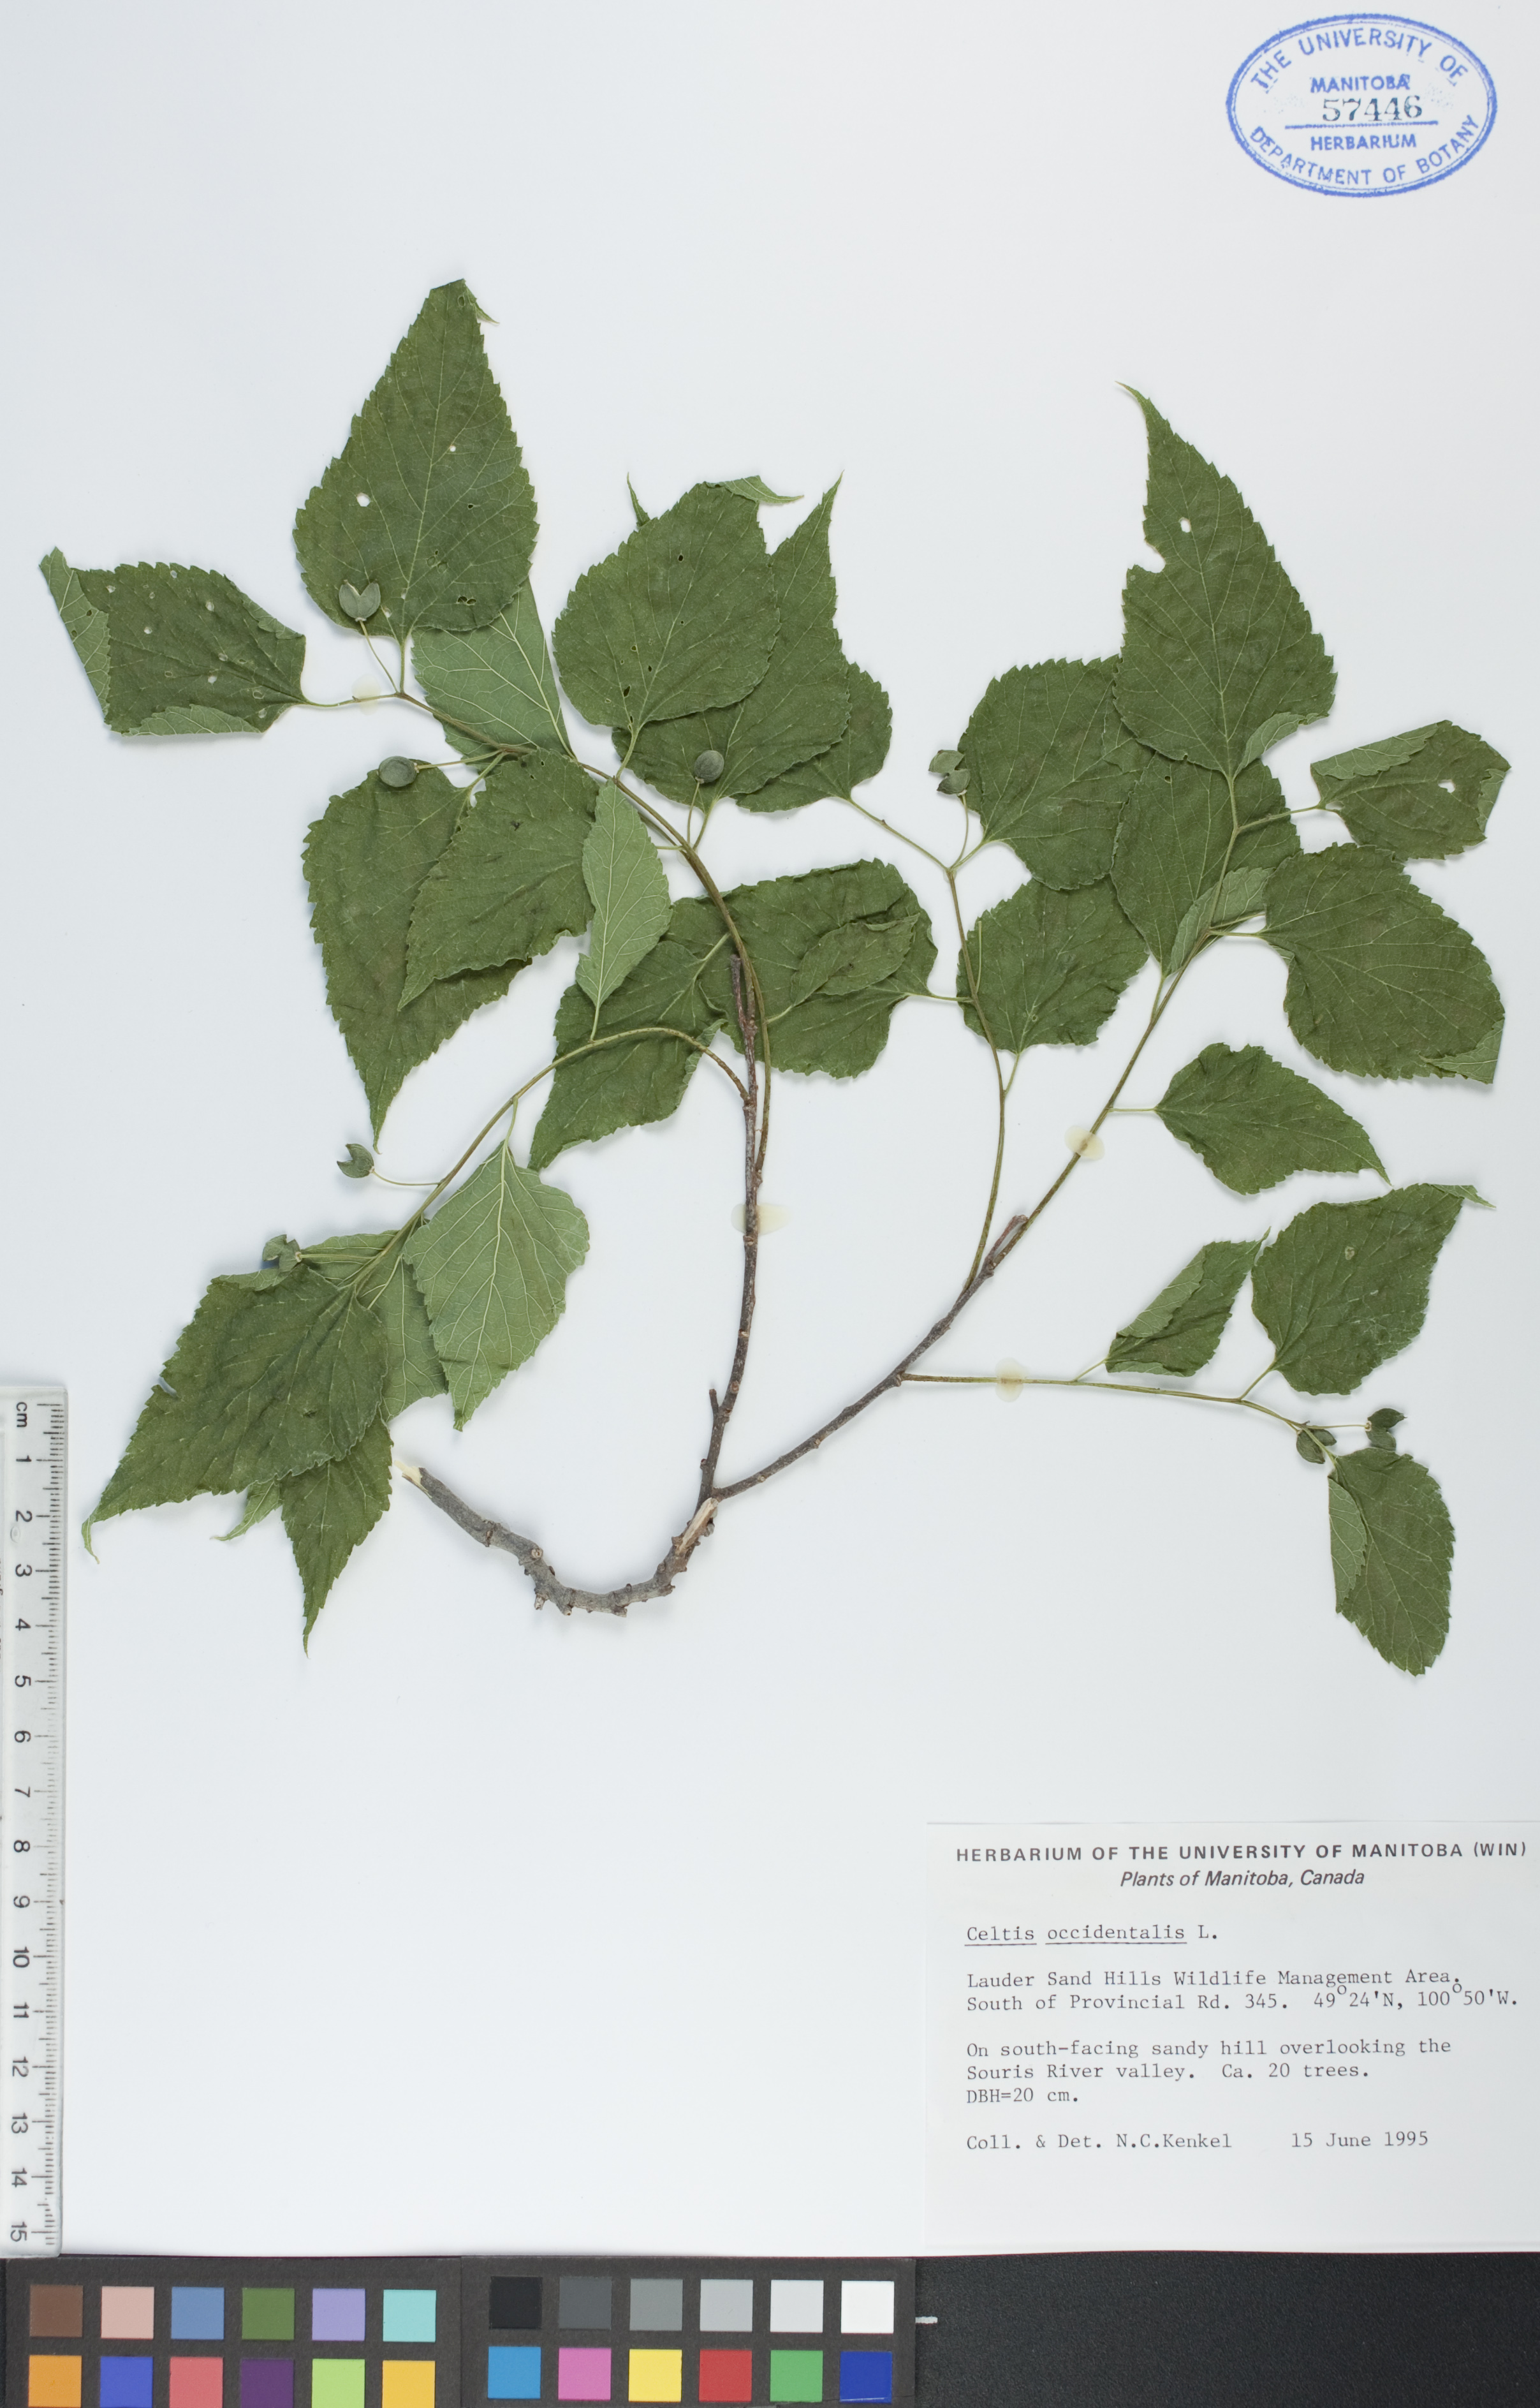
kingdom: Plantae
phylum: Tracheophyta
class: Magnoliopsida
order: Rosales
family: Cannabaceae
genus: Celtis
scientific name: Celtis occidentalis
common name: Common hackberry
